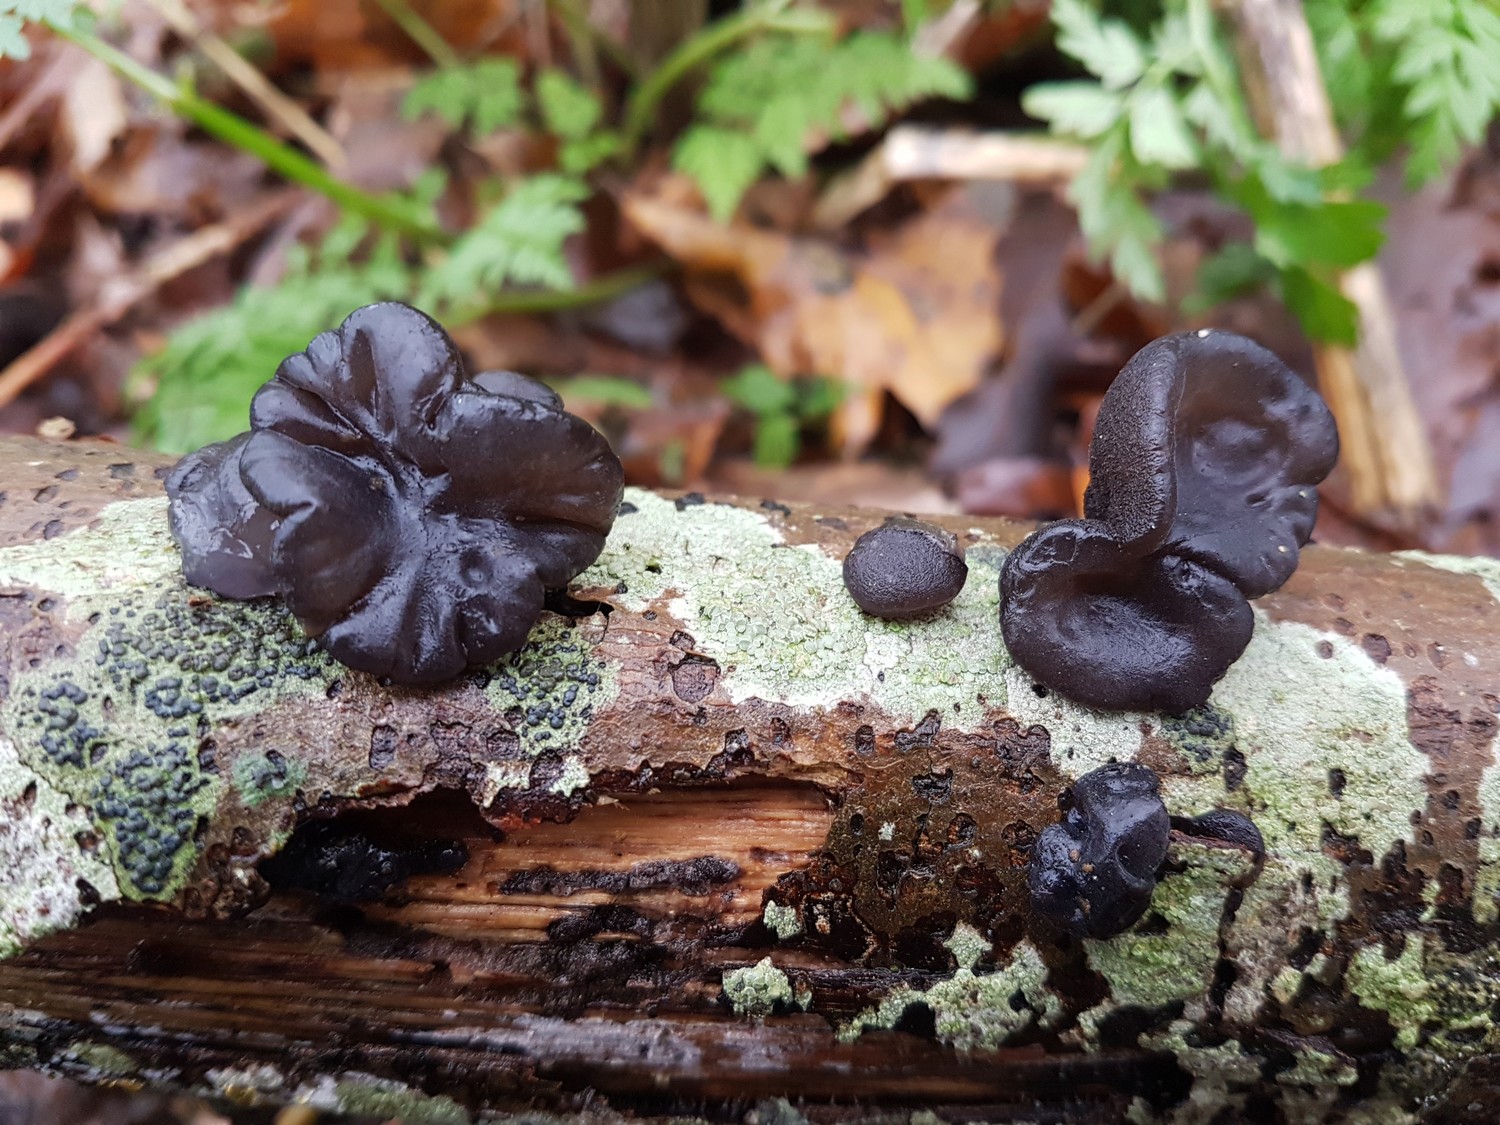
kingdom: Fungi
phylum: Basidiomycota
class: Agaricomycetes
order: Auriculariales
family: Auriculariaceae
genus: Exidia
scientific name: Exidia glandulosa
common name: ege-bævretop
